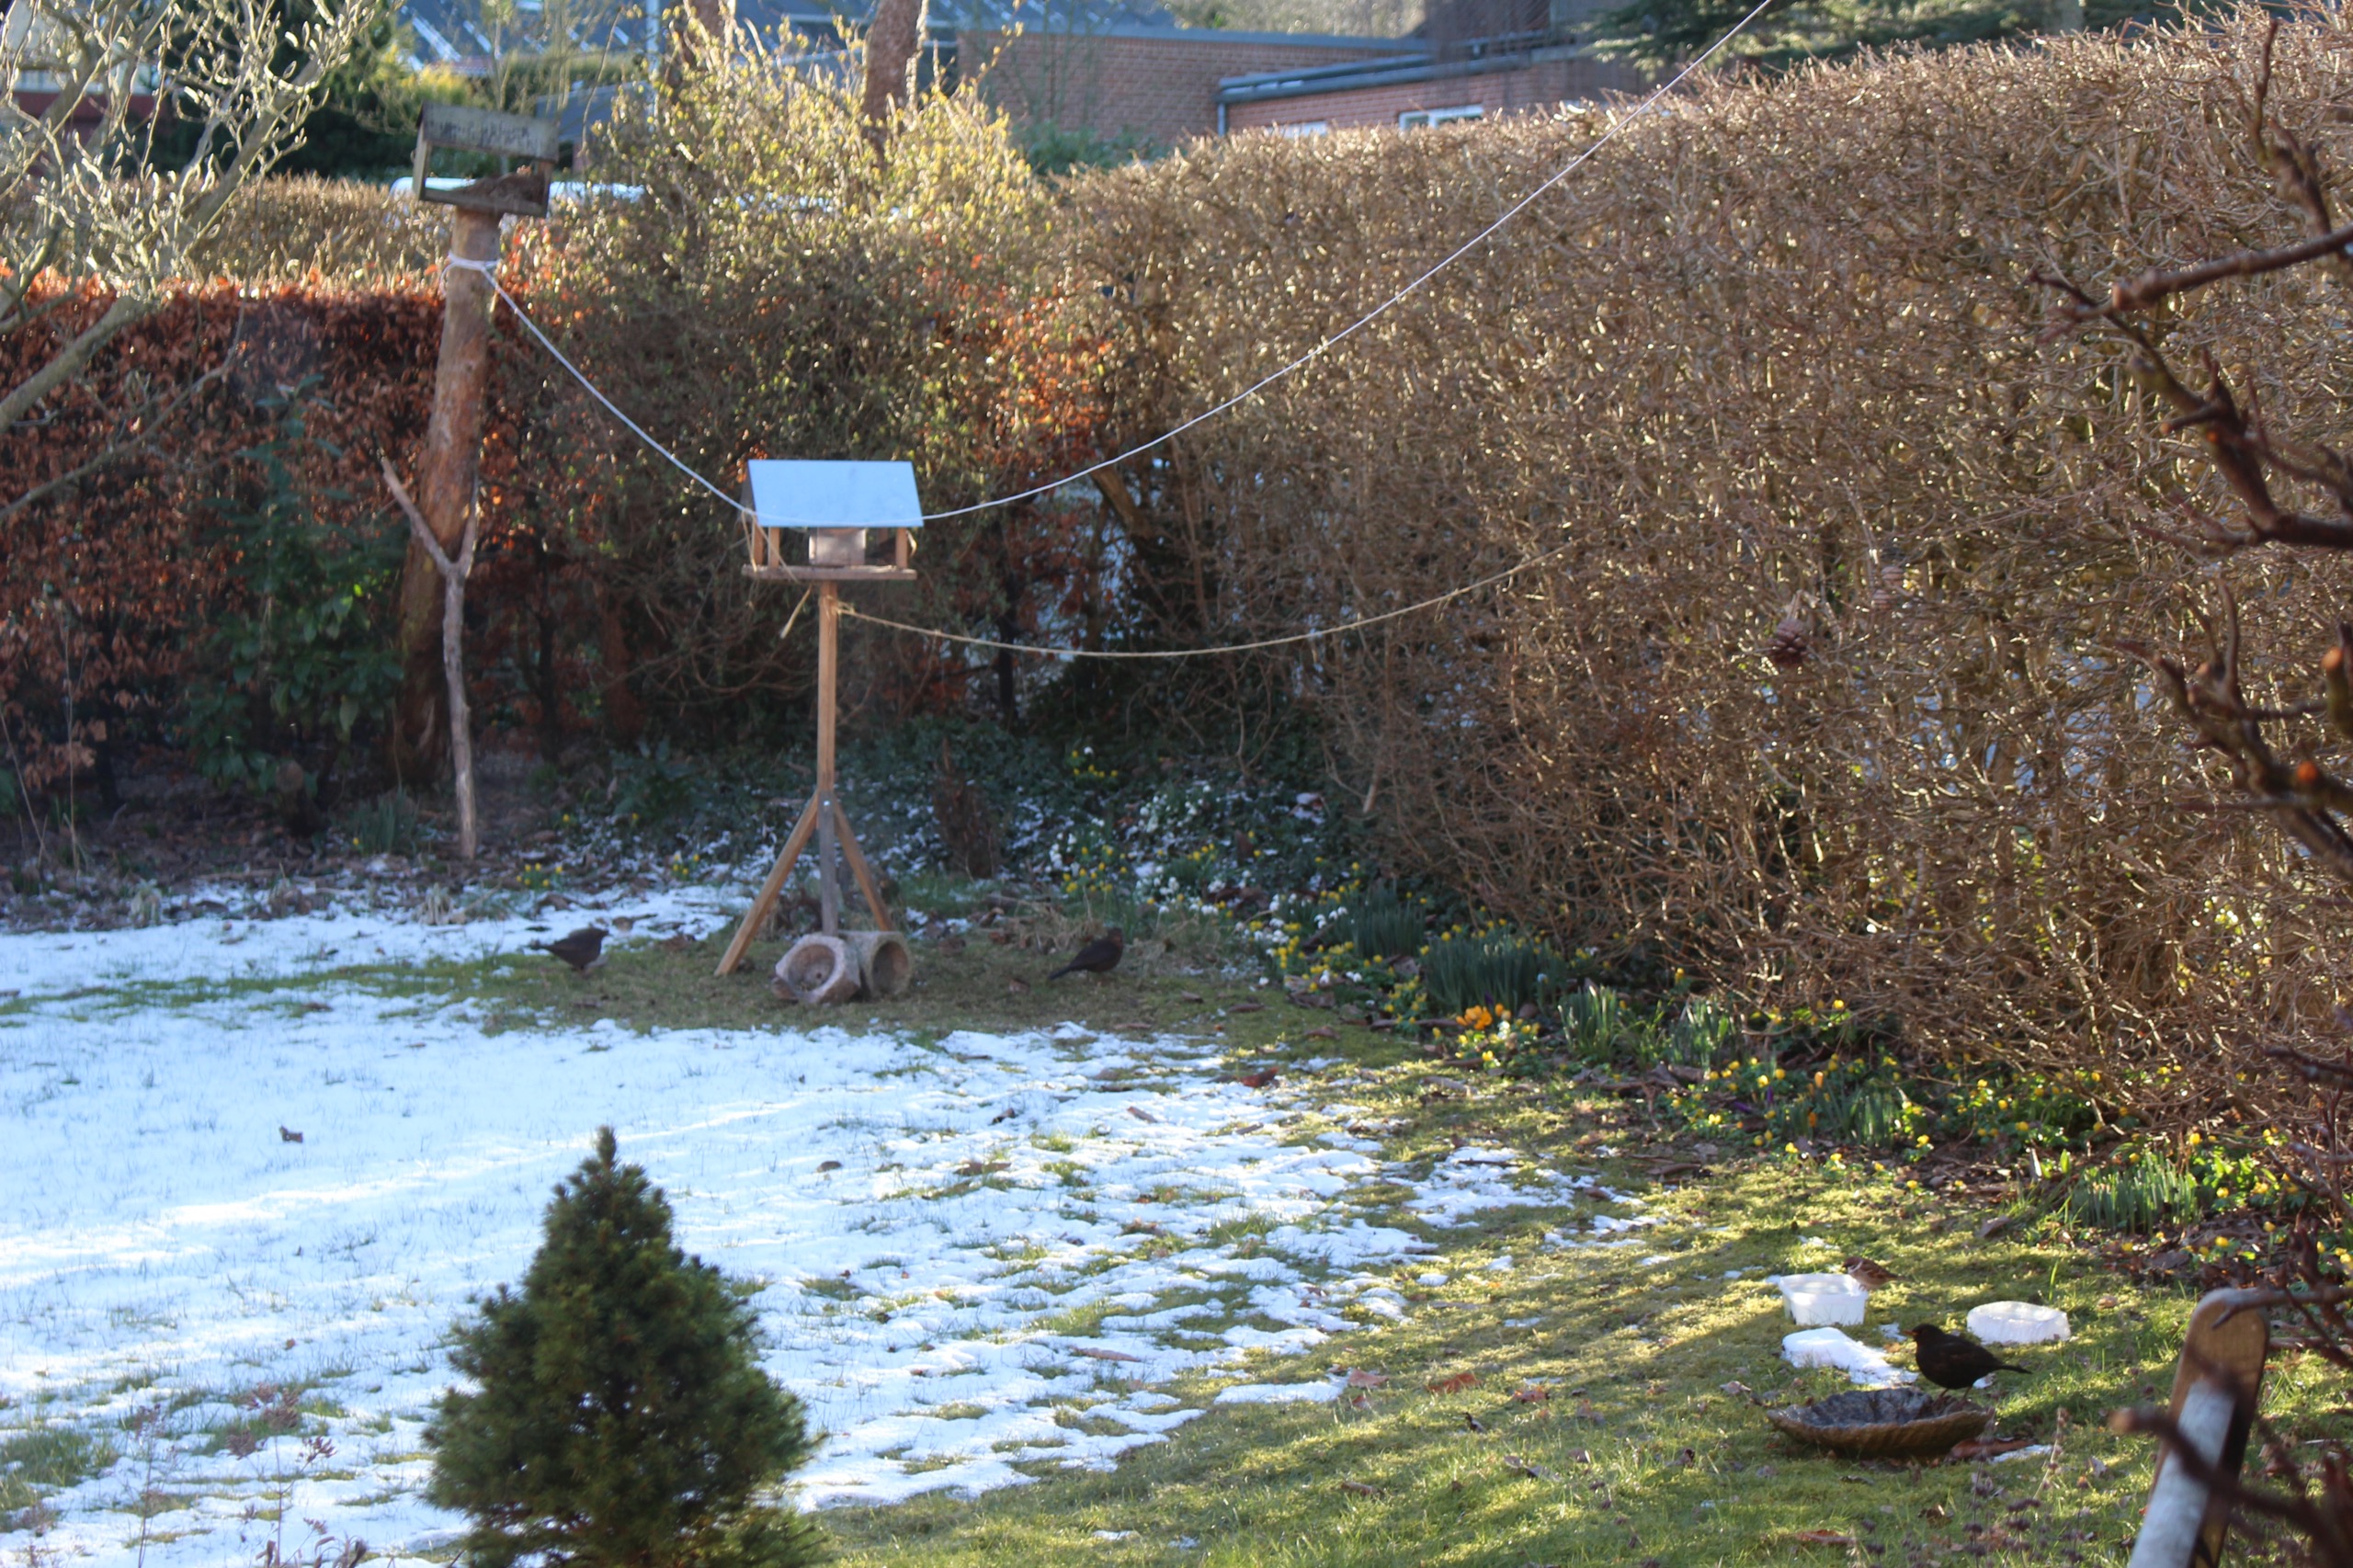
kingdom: Animalia
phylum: Chordata
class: Aves
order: Passeriformes
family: Turdidae
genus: Turdus
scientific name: Turdus merula
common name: Solsort
